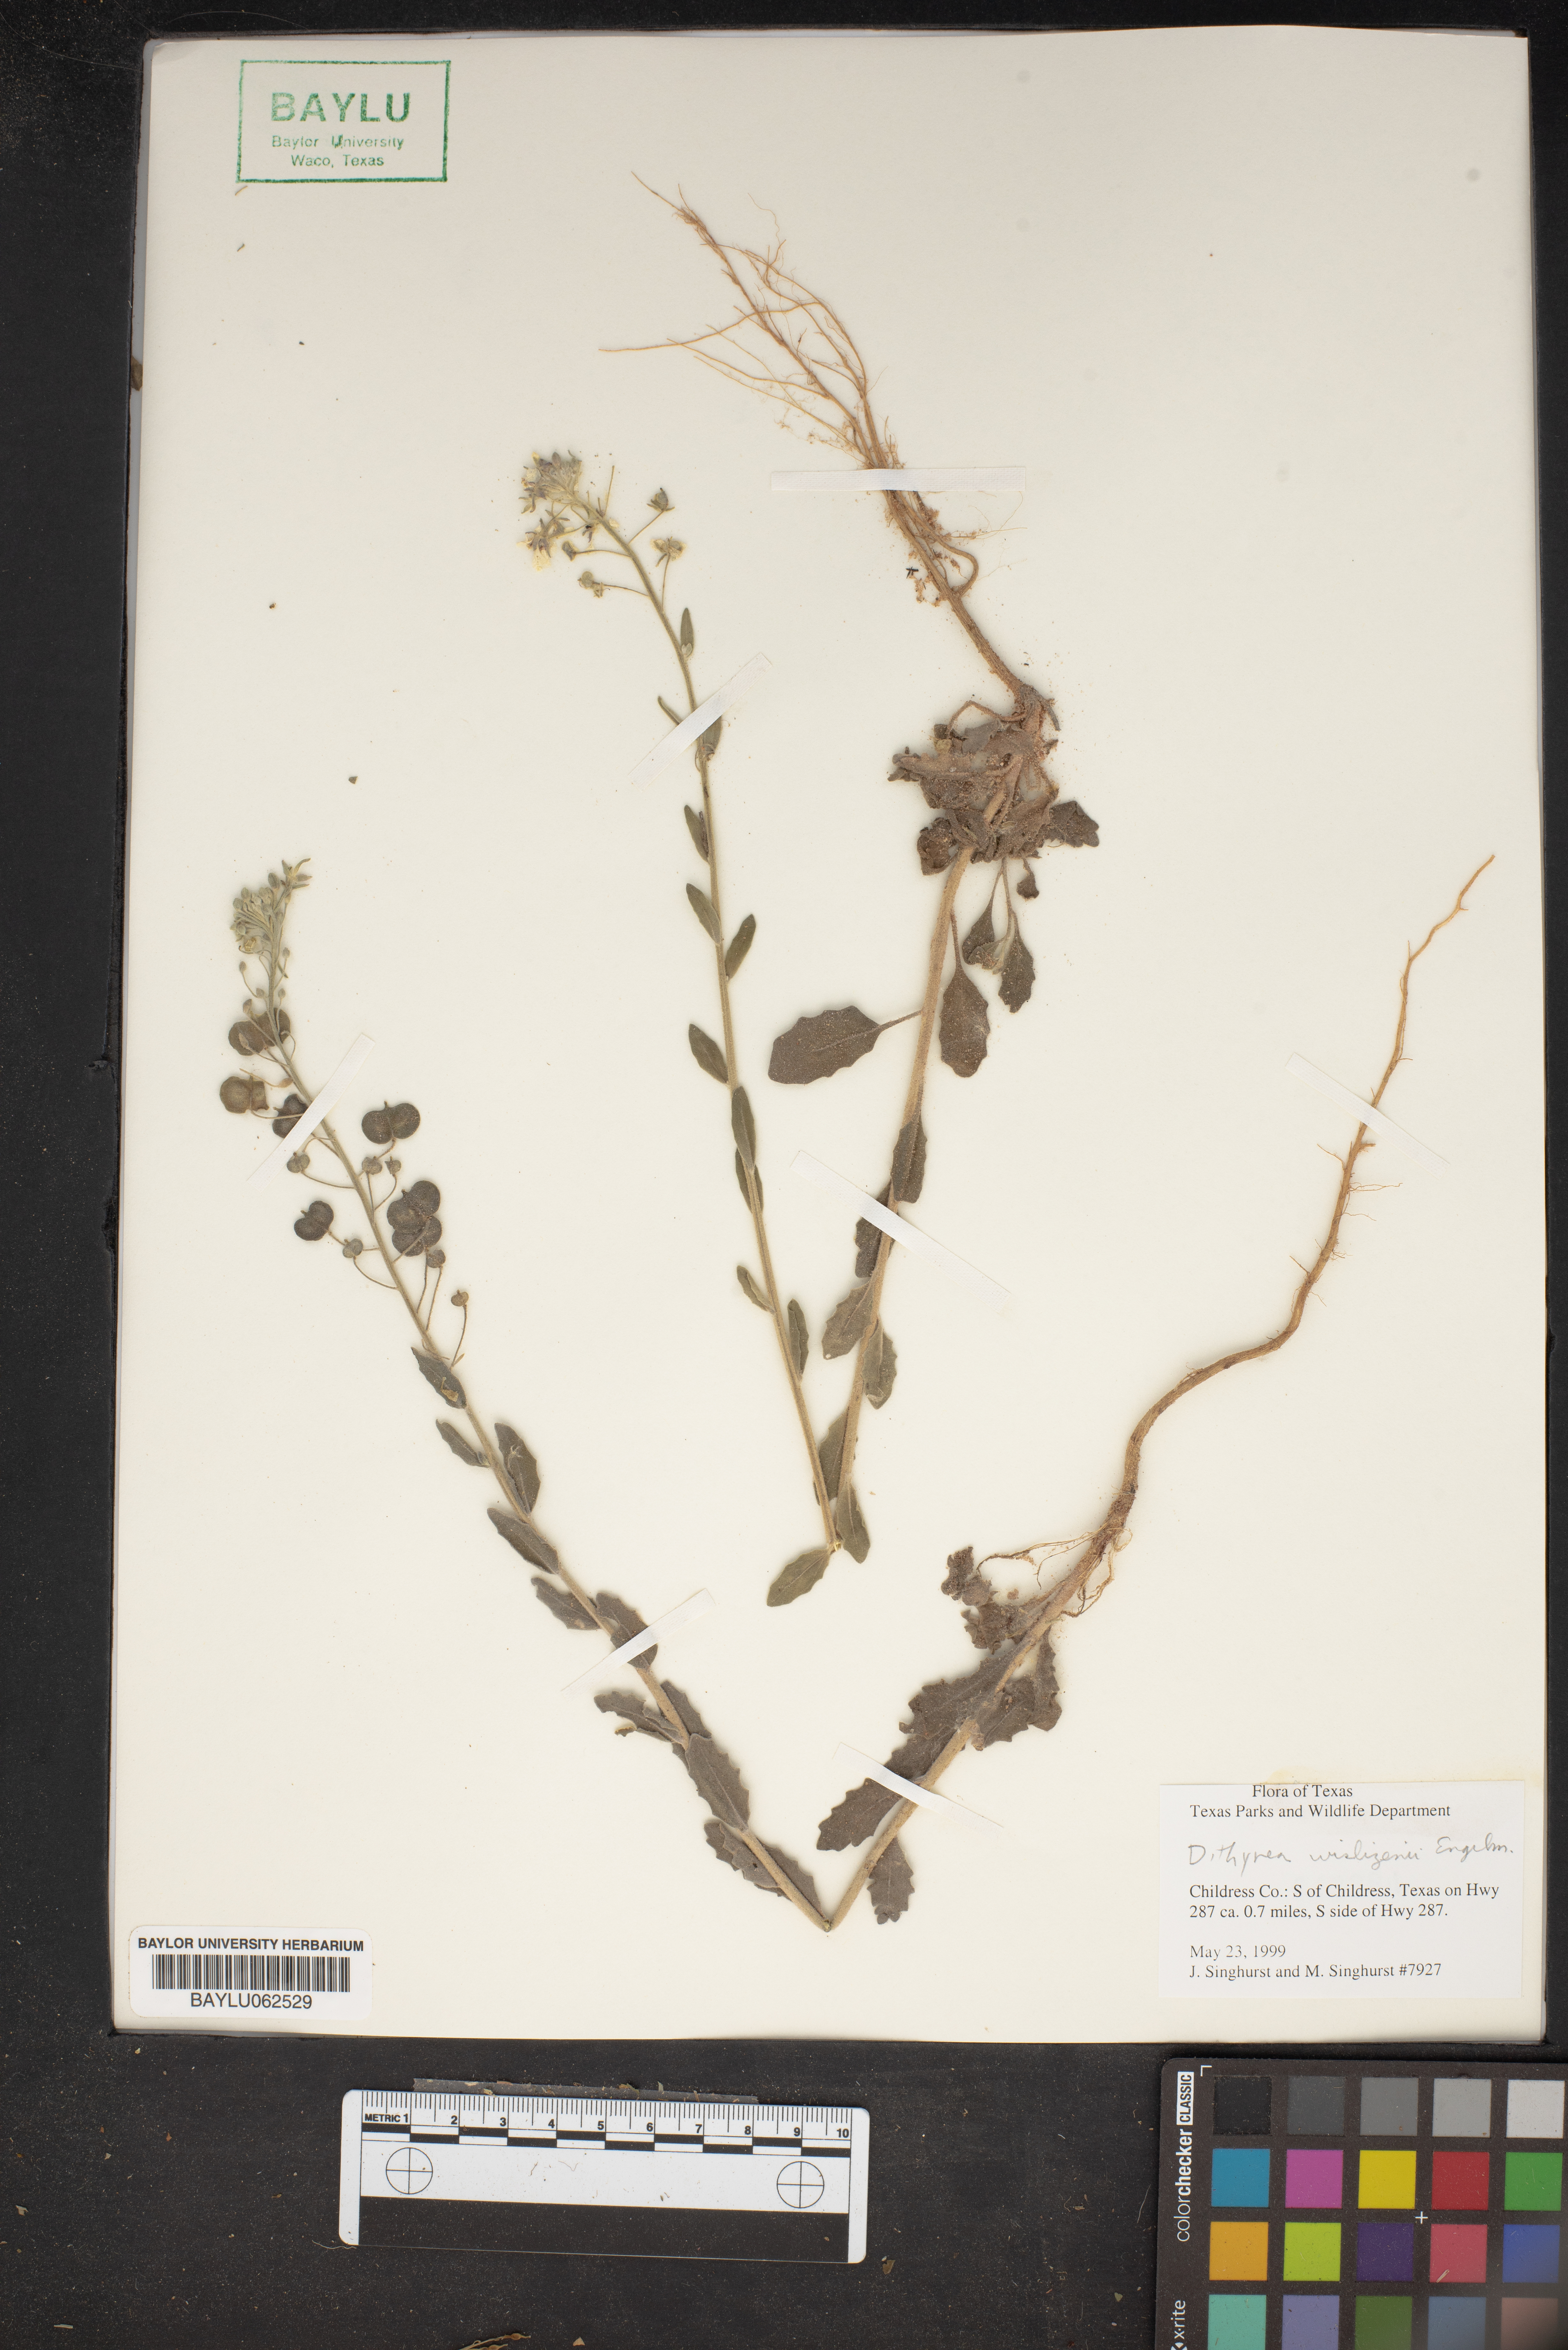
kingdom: Plantae
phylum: Tracheophyta
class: Magnoliopsida
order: Brassicales
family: Brassicaceae
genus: Dimorphocarpa
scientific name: Dimorphocarpa wislizenii
